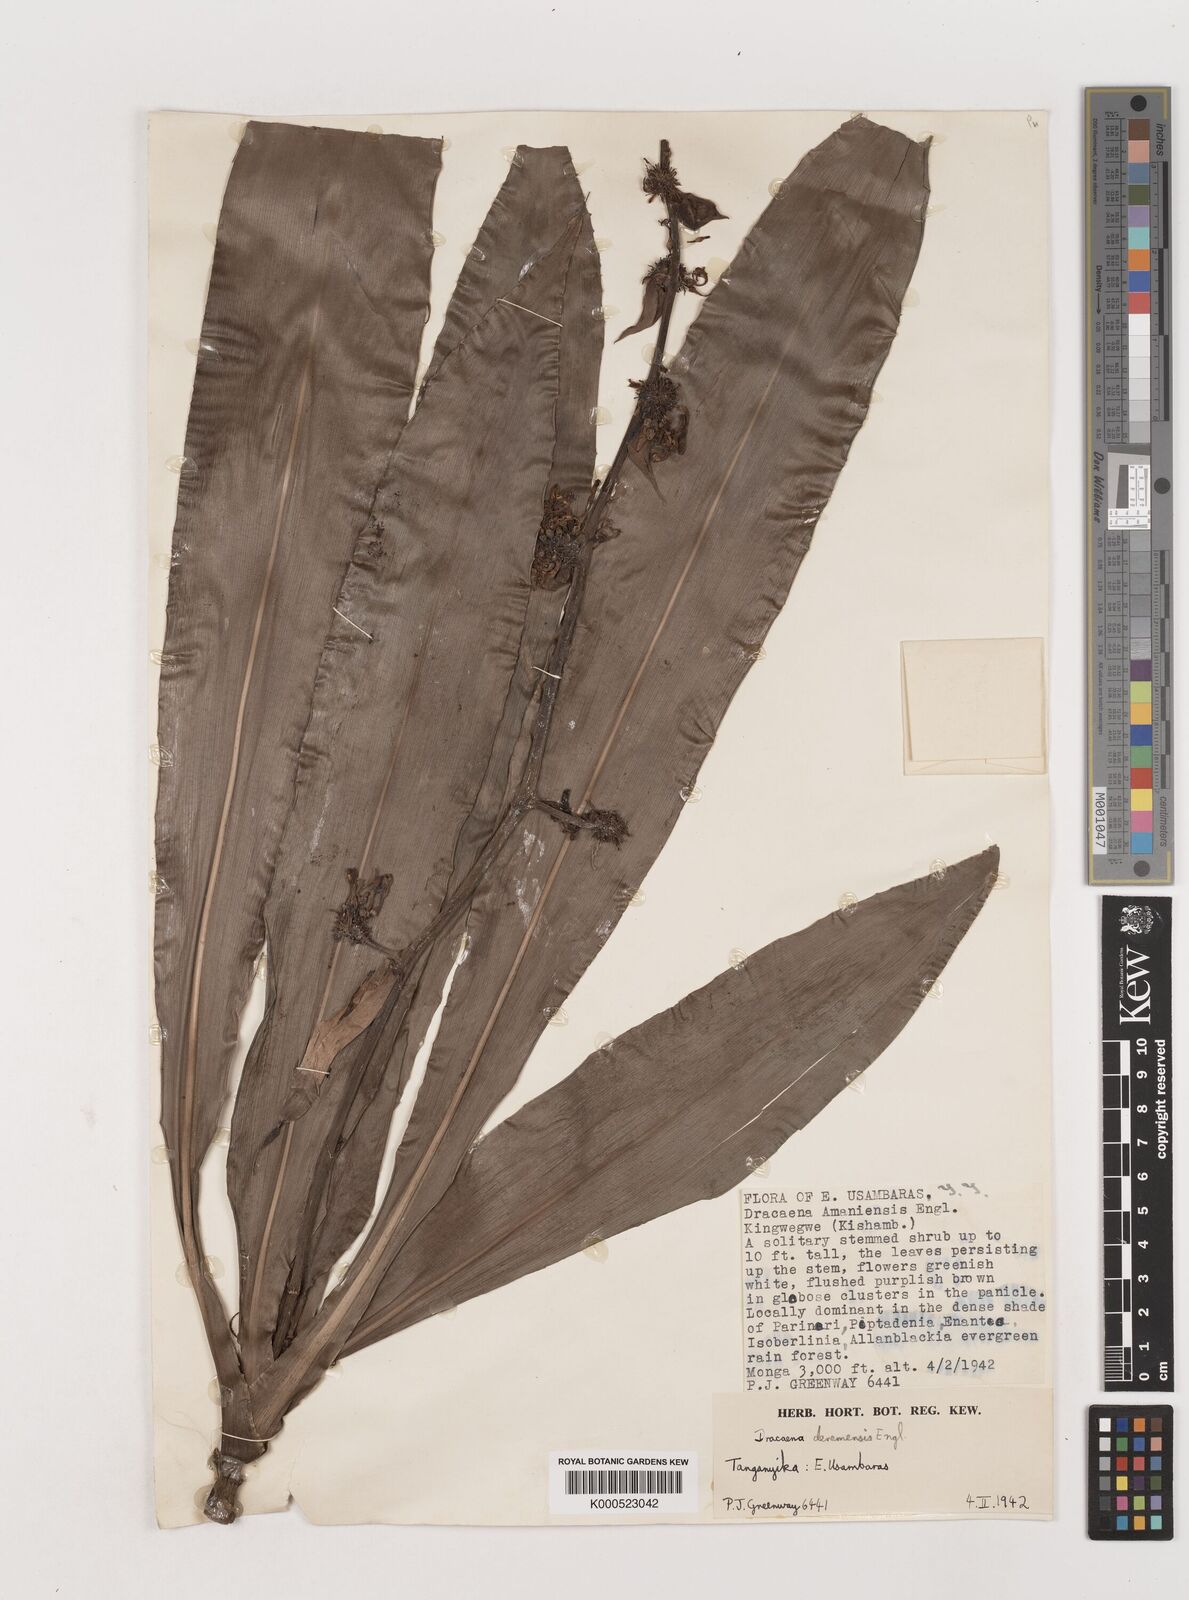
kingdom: Plantae
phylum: Tracheophyta
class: Liliopsida
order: Asparagales
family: Asparagaceae
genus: Dracaena
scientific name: Dracaena fragrans
